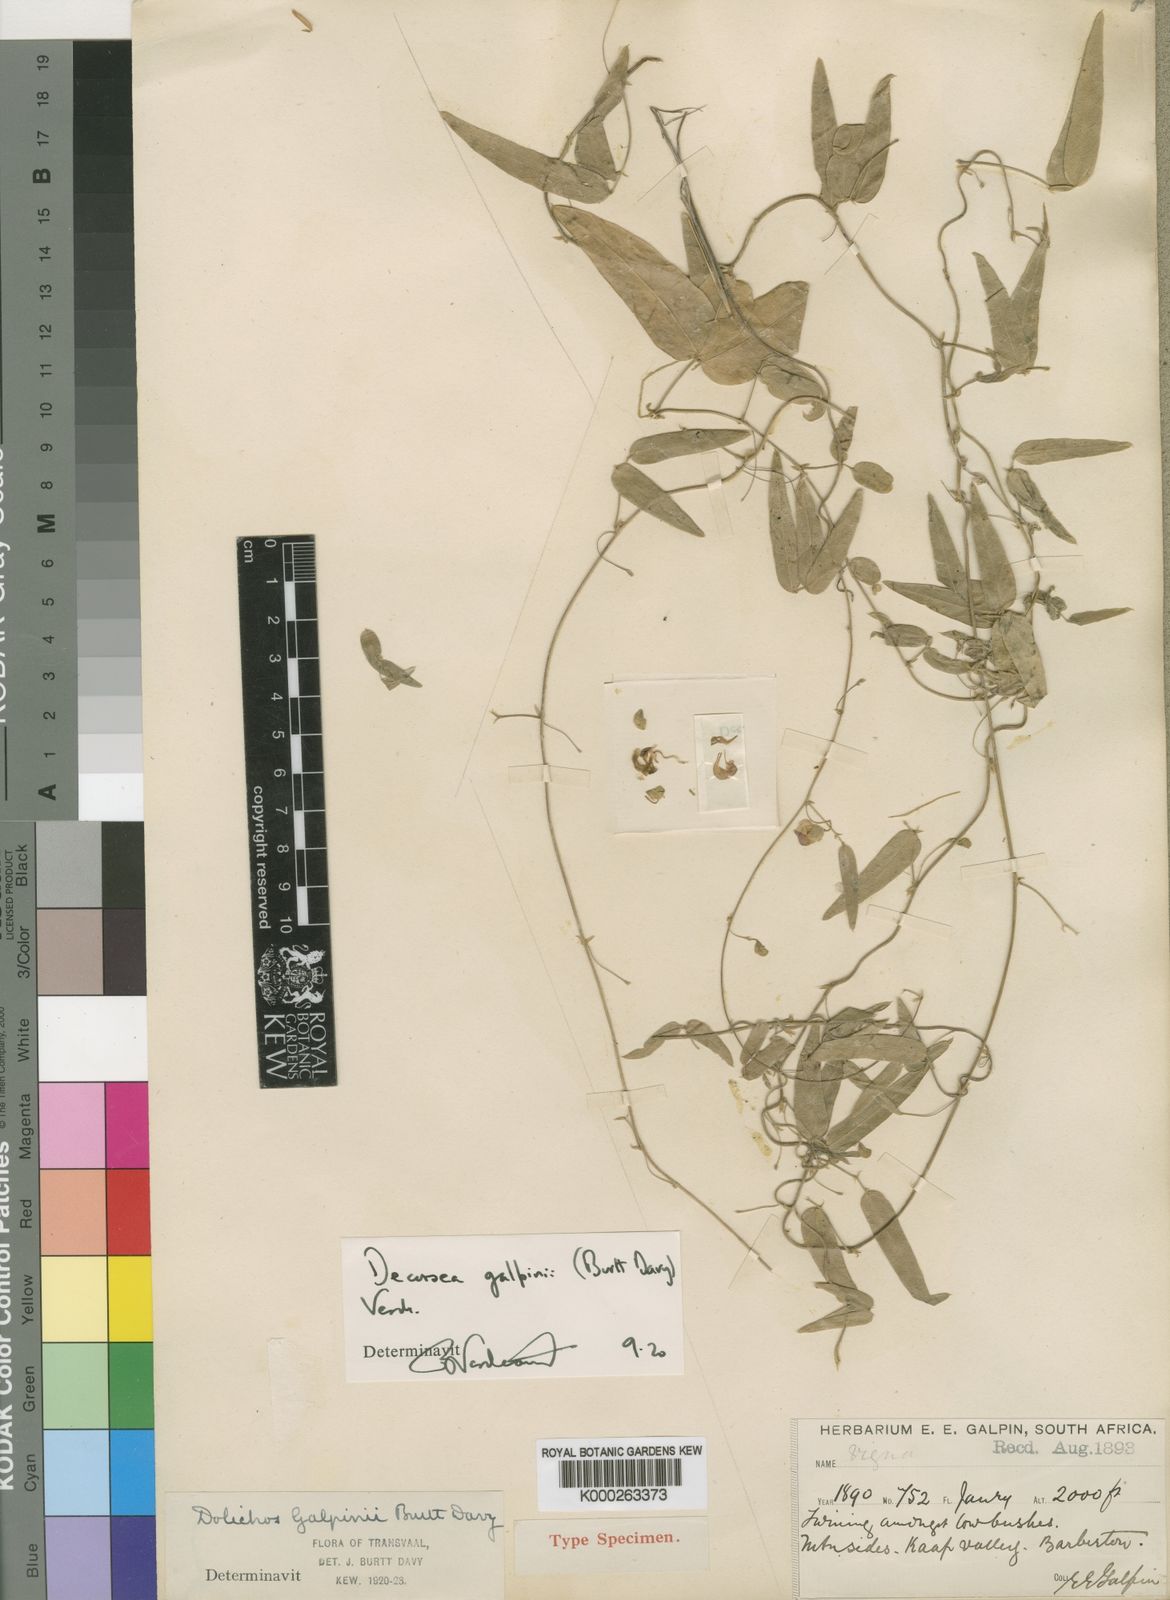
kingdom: Plantae
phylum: Tracheophyta
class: Magnoliopsida
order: Fabales
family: Fabaceae
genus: Decorsea
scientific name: Decorsea galpinii
